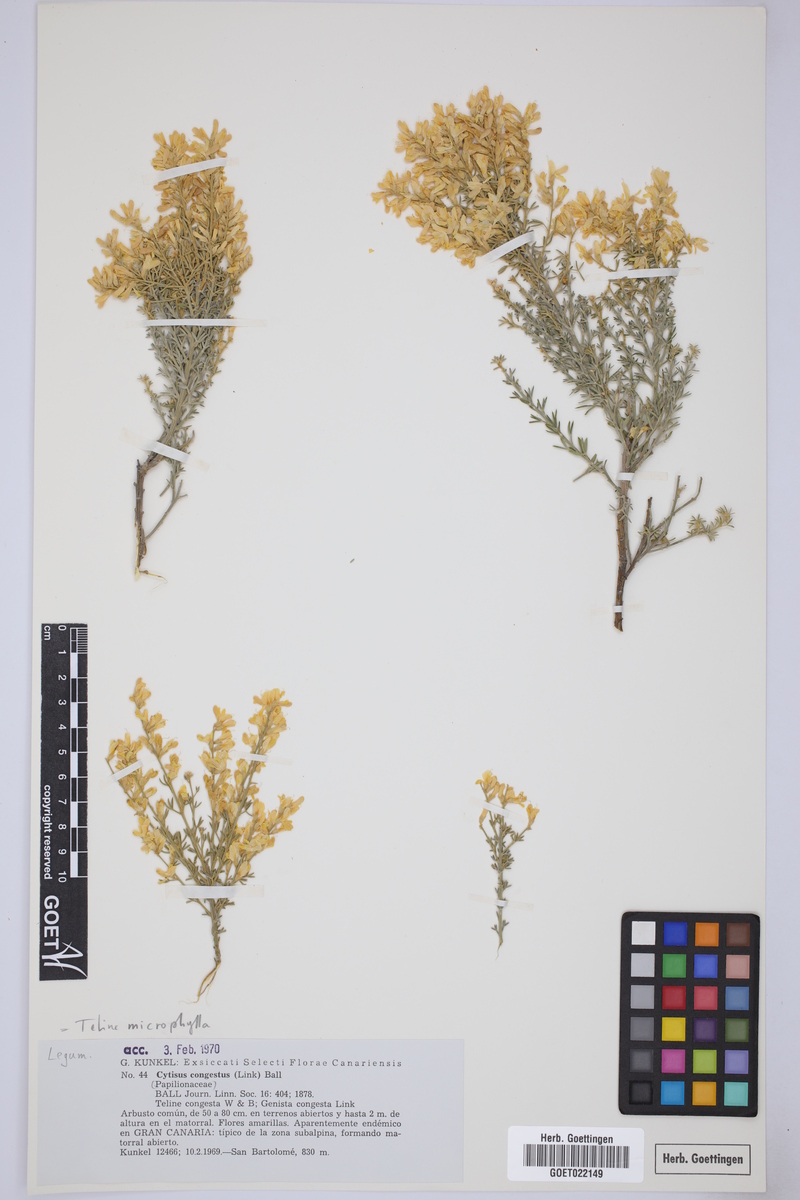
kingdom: Plantae
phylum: Tracheophyta
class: Magnoliopsida
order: Fabales
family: Fabaceae
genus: Genista
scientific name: Genista microphylla
